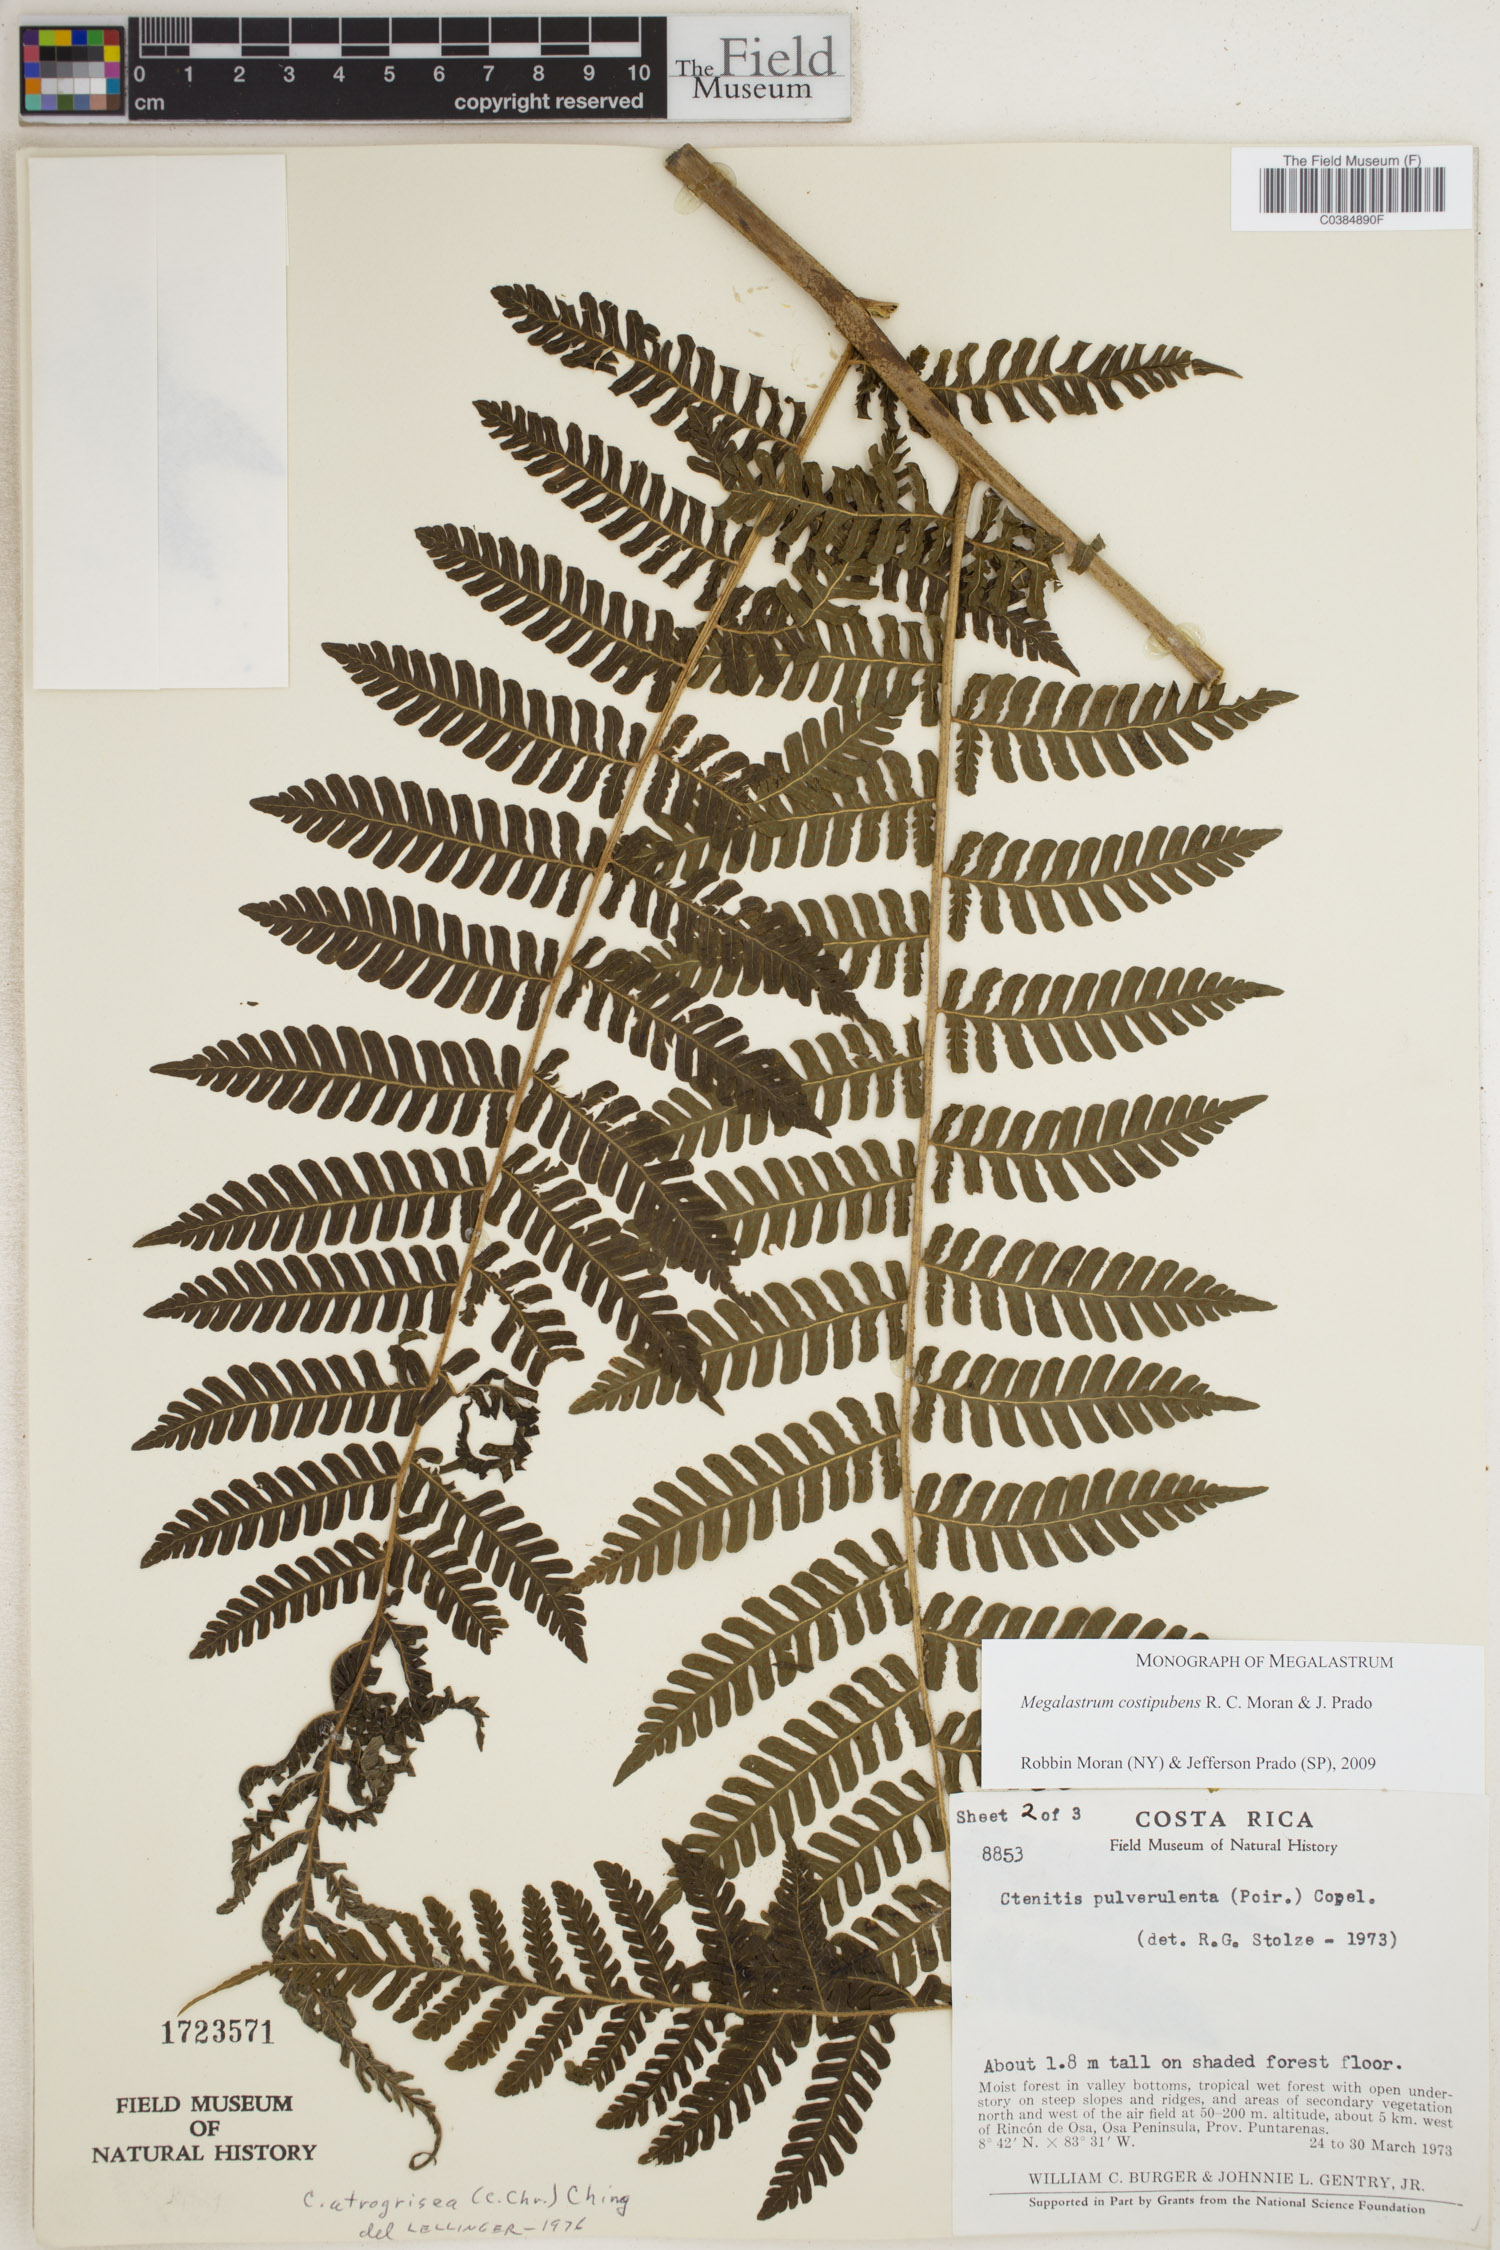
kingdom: Plantae
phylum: Tracheophyta
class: Polypodiopsida
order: Polypodiales
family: Dryopteridaceae
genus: Megalastrum
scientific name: Megalastrum costipubens
